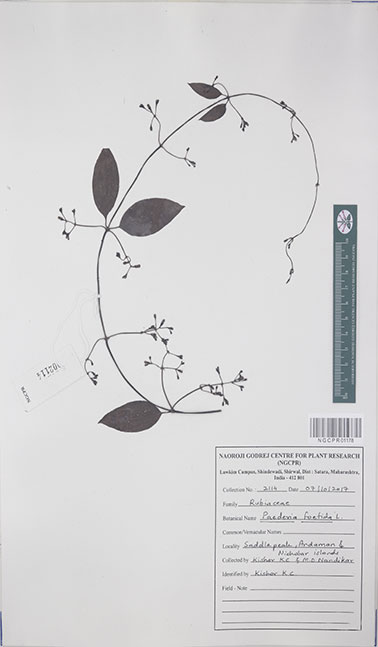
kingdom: Plantae
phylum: Tracheophyta
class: Magnoliopsida
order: Gentianales
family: Rubiaceae
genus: Paederia
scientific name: Paederia foetida
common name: Stinkvine
